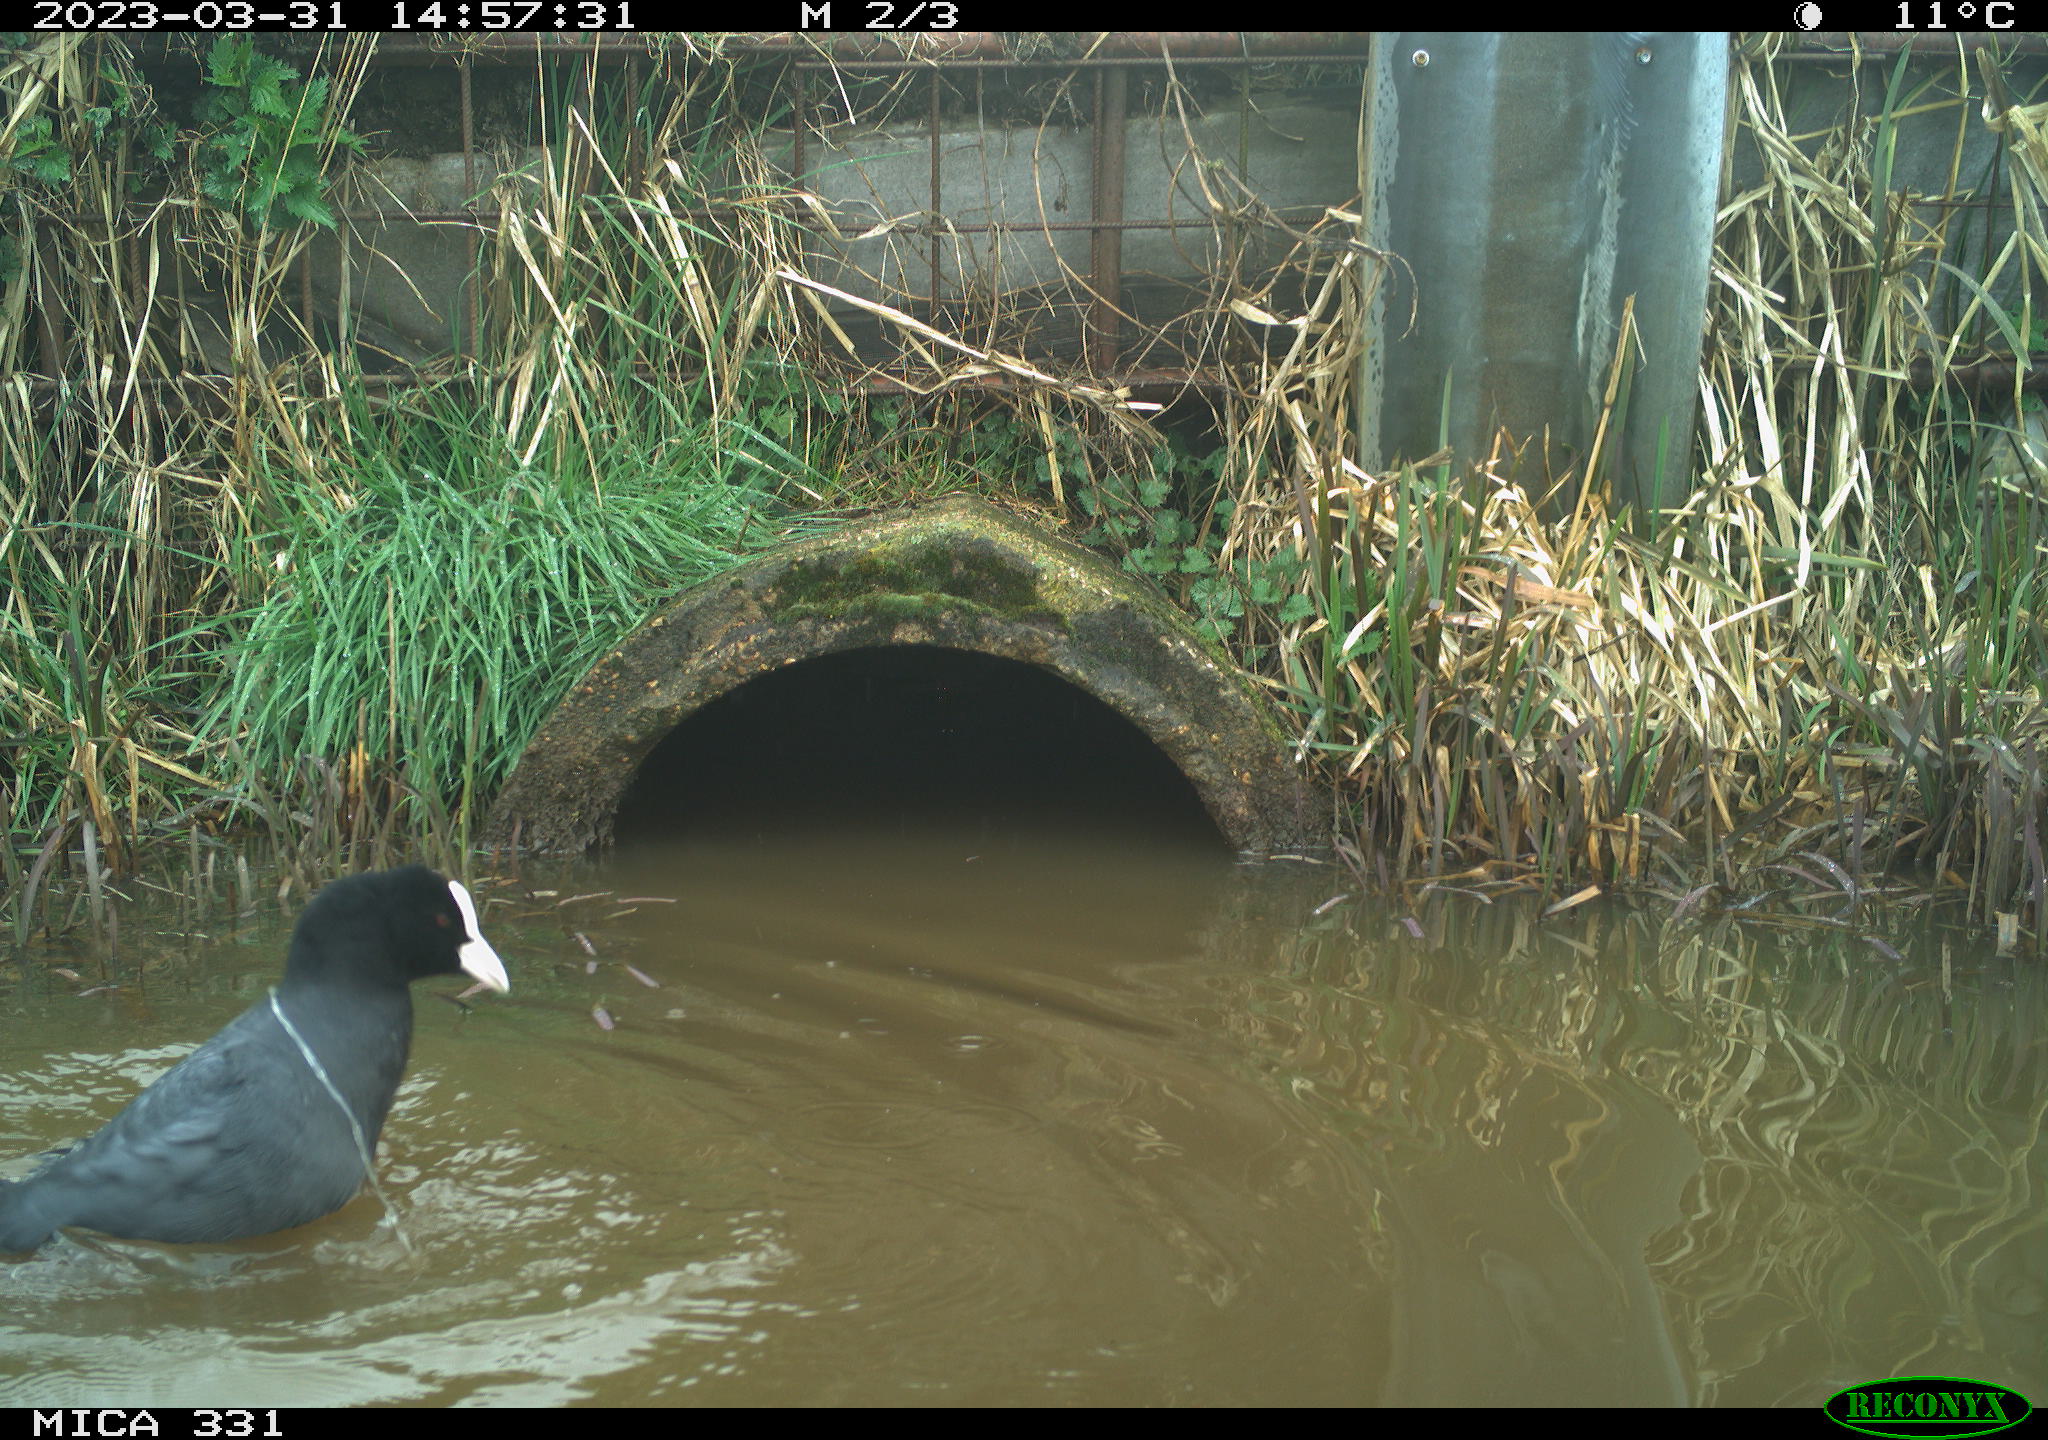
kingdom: Animalia
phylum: Chordata
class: Aves
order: Gruiformes
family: Rallidae
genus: Gallinula
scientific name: Gallinula chloropus
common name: Common moorhen
